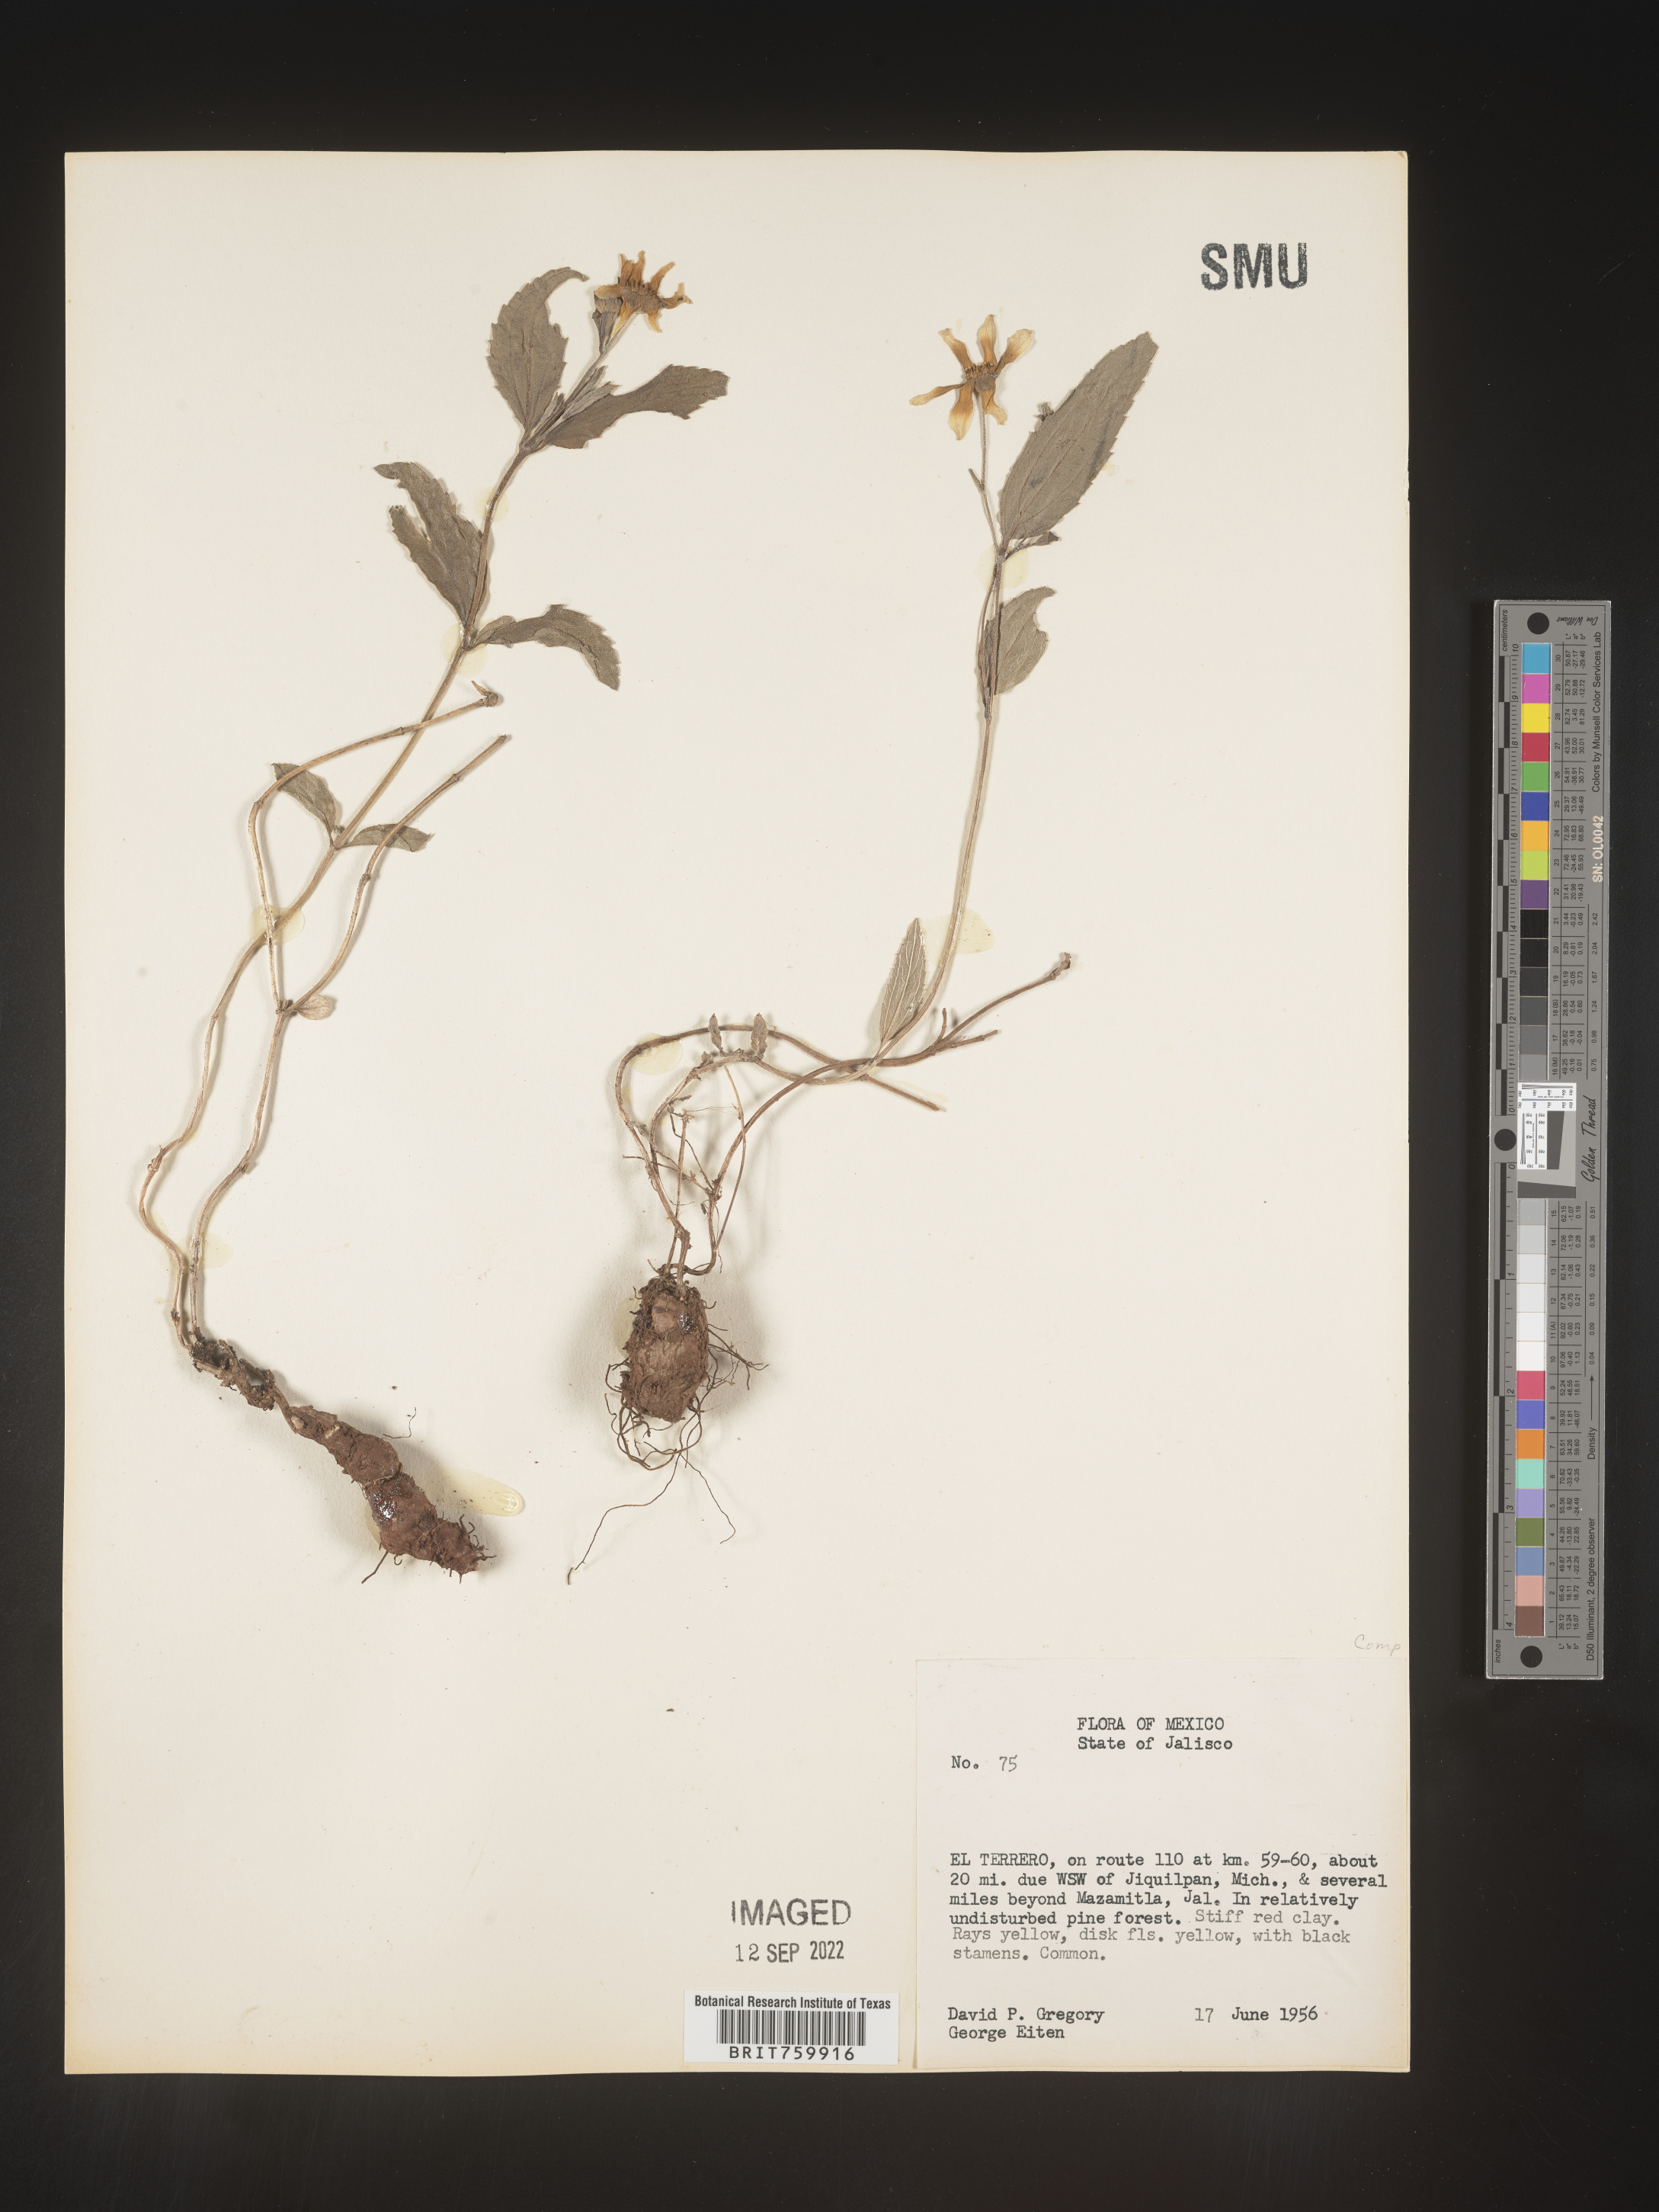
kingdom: Plantae
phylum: Tracheophyta
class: Magnoliopsida
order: Asterales
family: Asteraceae
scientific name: Asteraceae
